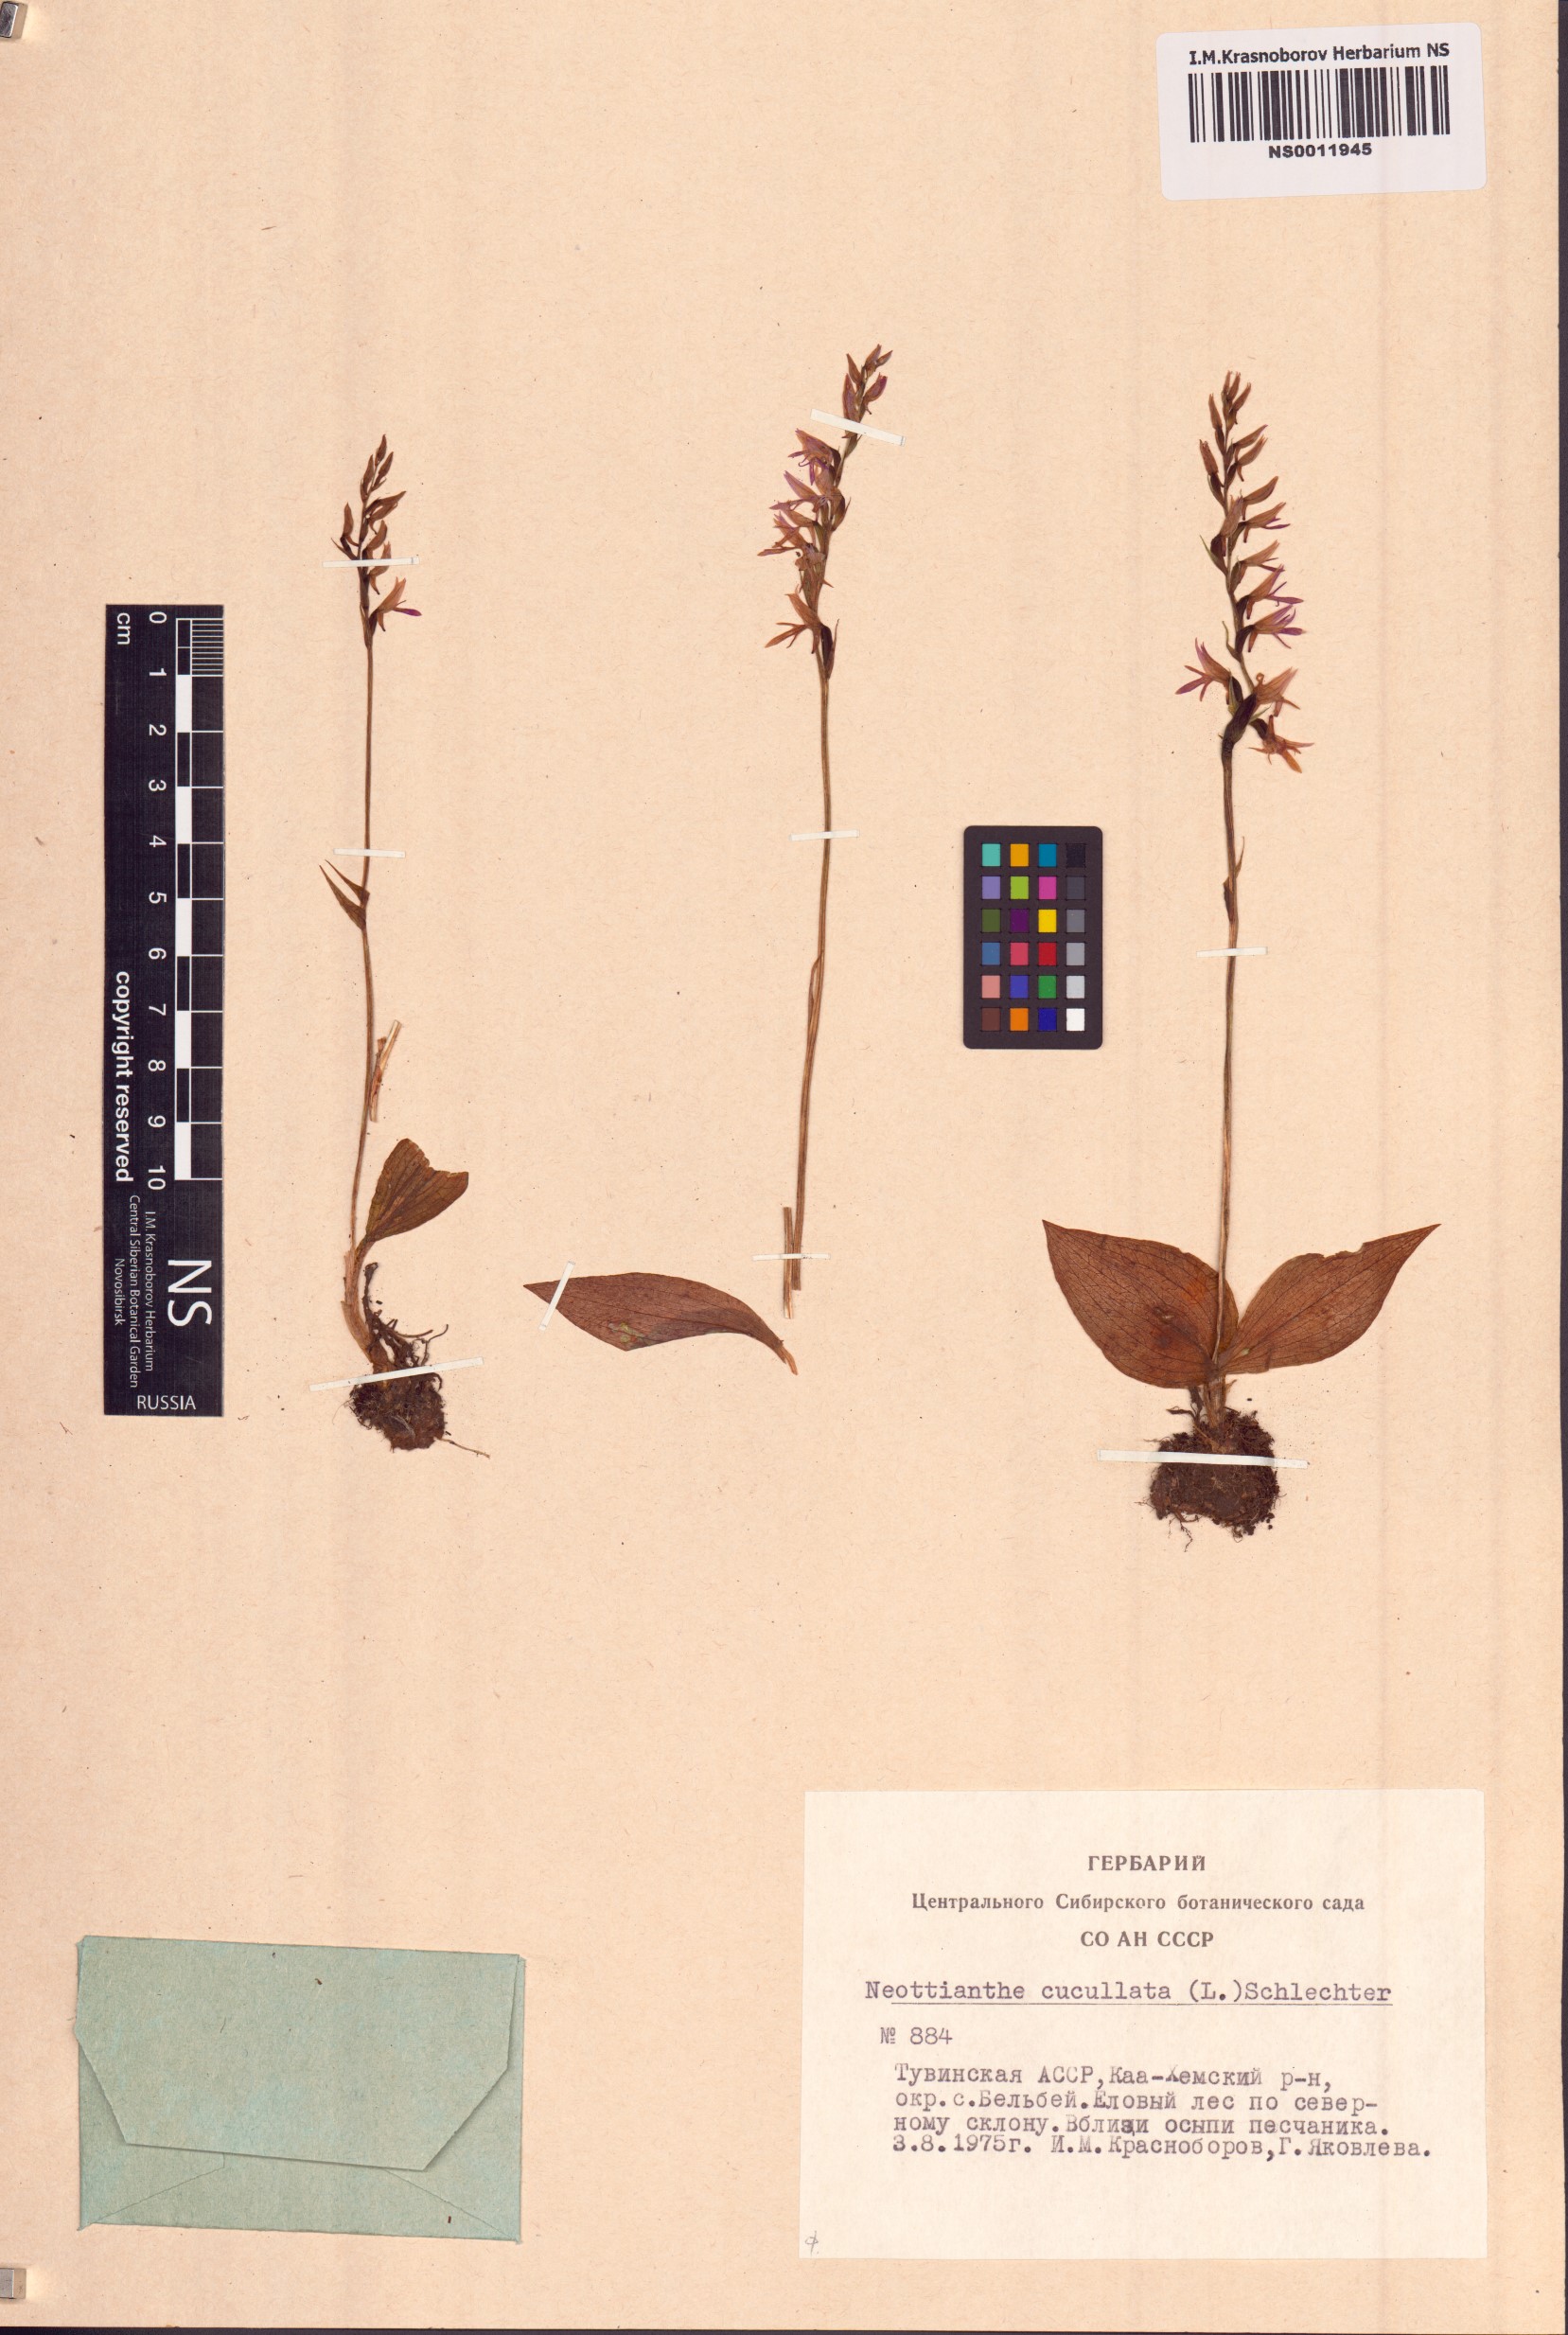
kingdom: Plantae
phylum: Tracheophyta
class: Liliopsida
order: Asparagales
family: Orchidaceae
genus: Hemipilia
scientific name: Hemipilia cucullata
